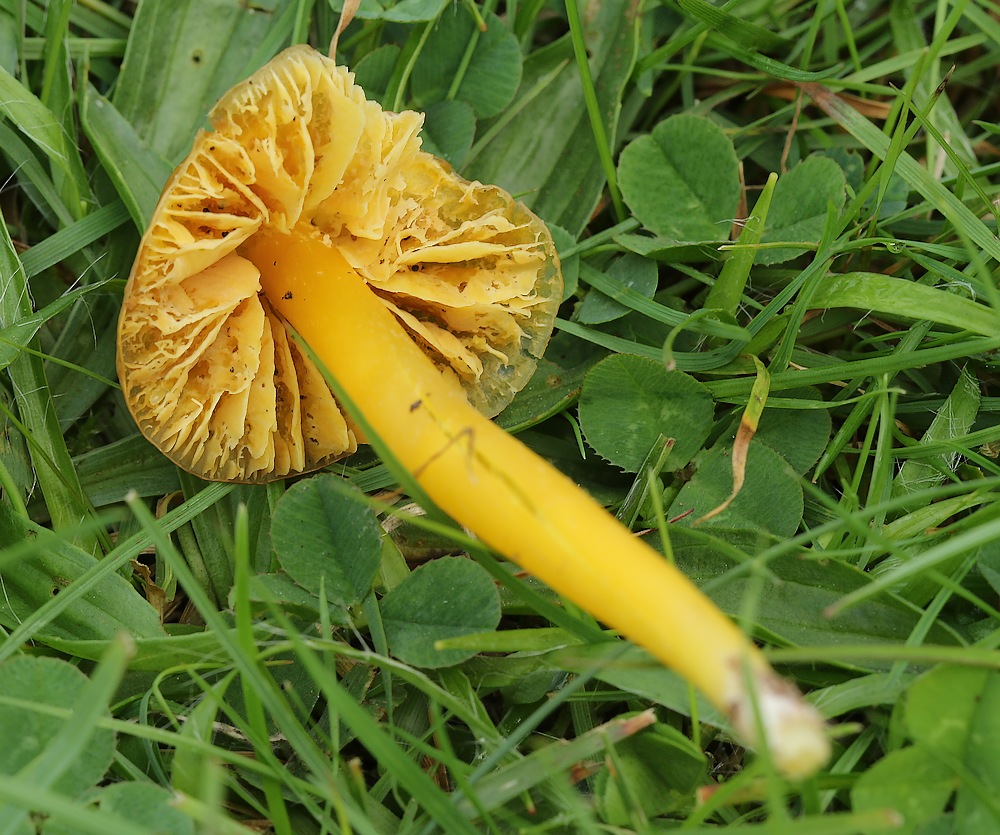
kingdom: Fungi
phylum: Basidiomycota
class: Agaricomycetes
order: Agaricales
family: Hygrophoraceae
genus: Hygrocybe
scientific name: Hygrocybe
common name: vokshat
